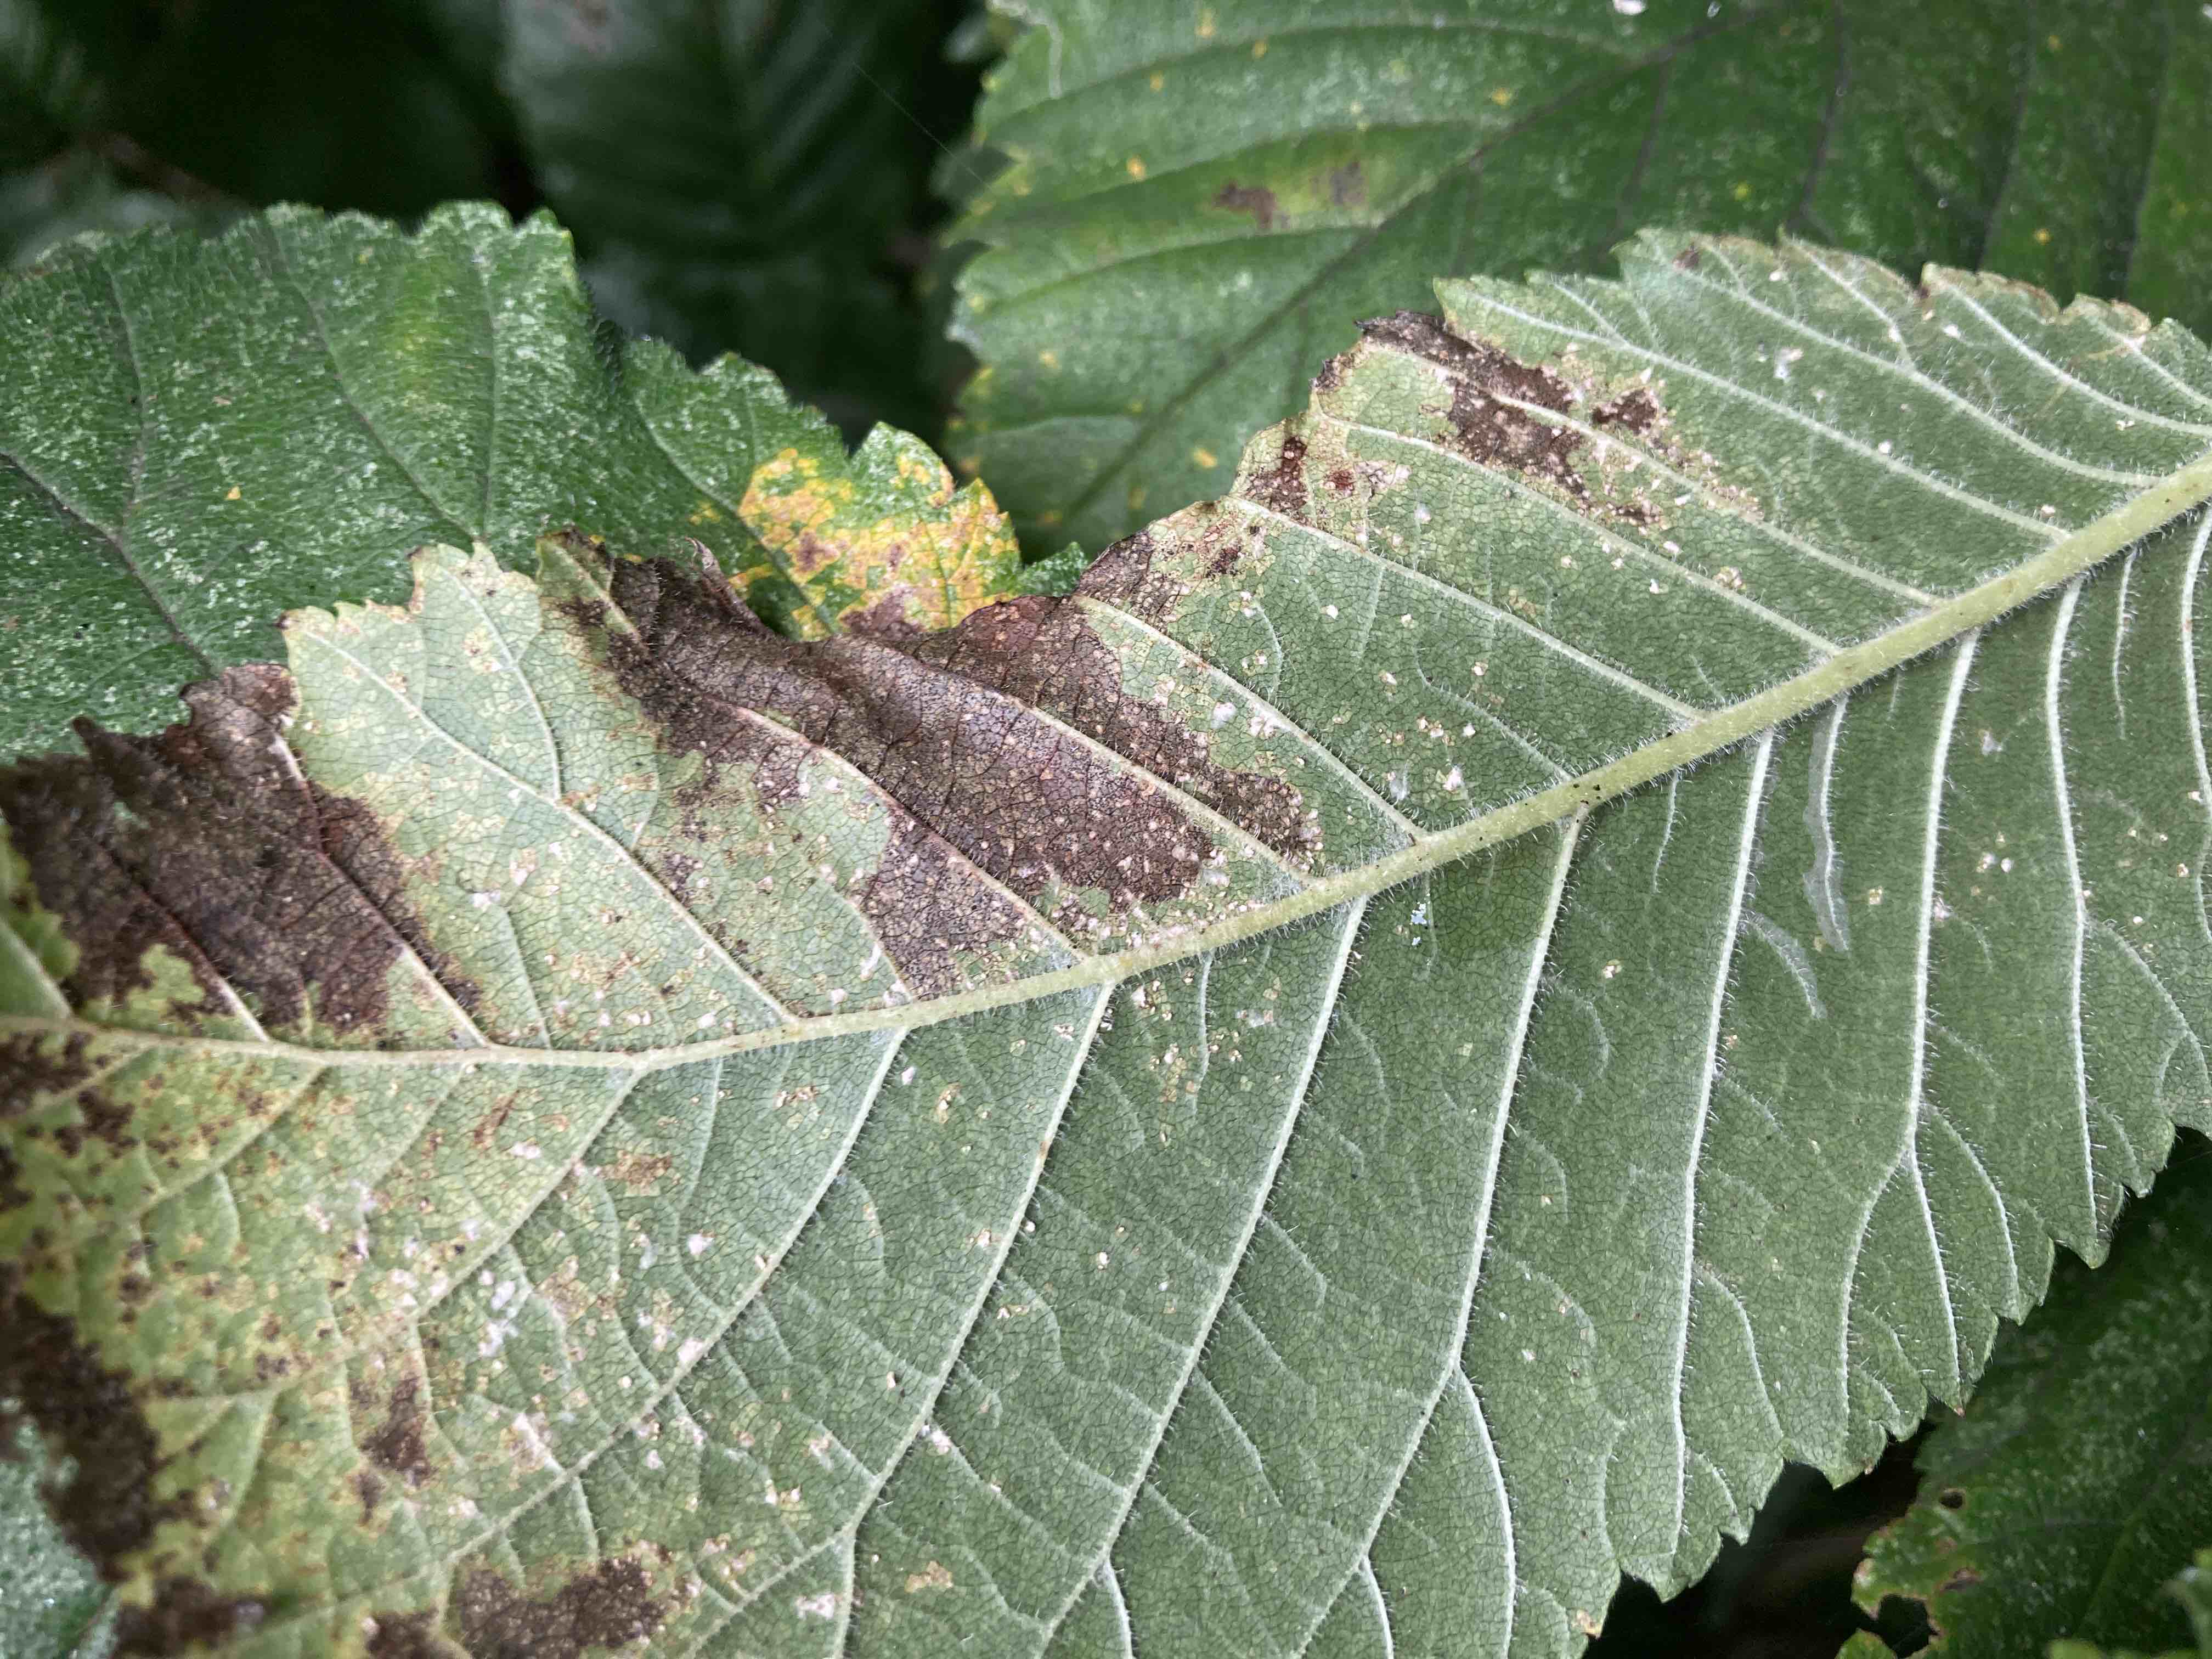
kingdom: Fungi
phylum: Ascomycota
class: Dothideomycetes
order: Mycosphaerellales
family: Mycosphaerellaceae
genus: Mycosphaerella
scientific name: Mycosphaerella ulmi
